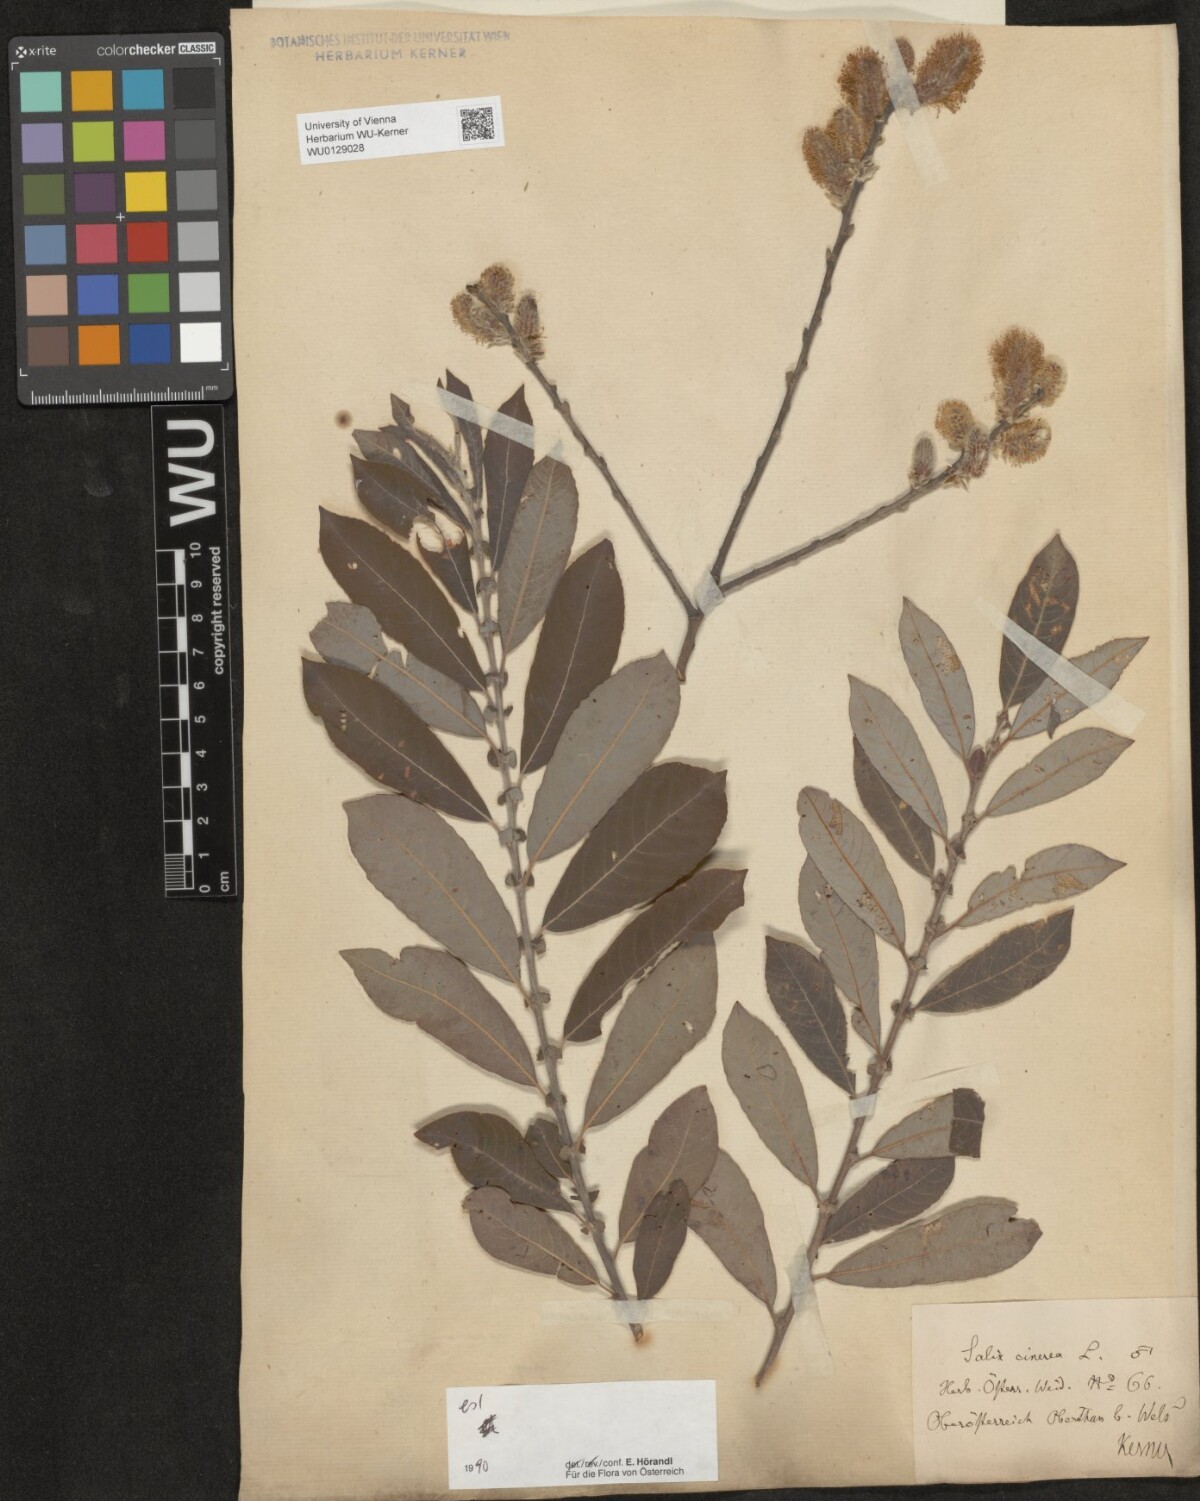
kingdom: Plantae
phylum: Tracheophyta
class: Magnoliopsida
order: Malpighiales
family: Salicaceae
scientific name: Salicaceae
